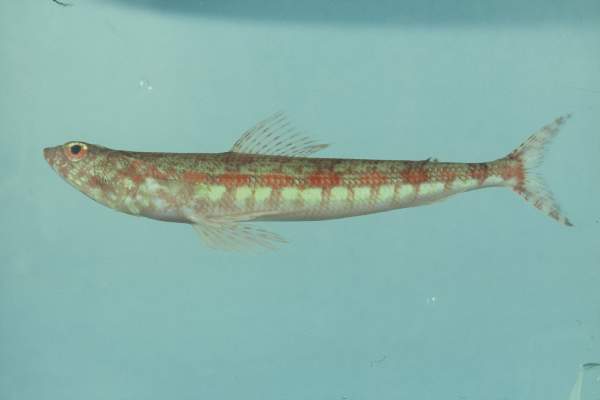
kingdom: Animalia
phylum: Chordata
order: Aulopiformes
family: Synodontidae
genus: Synodus
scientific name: Synodus variegatus
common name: Variegated lizardfish
